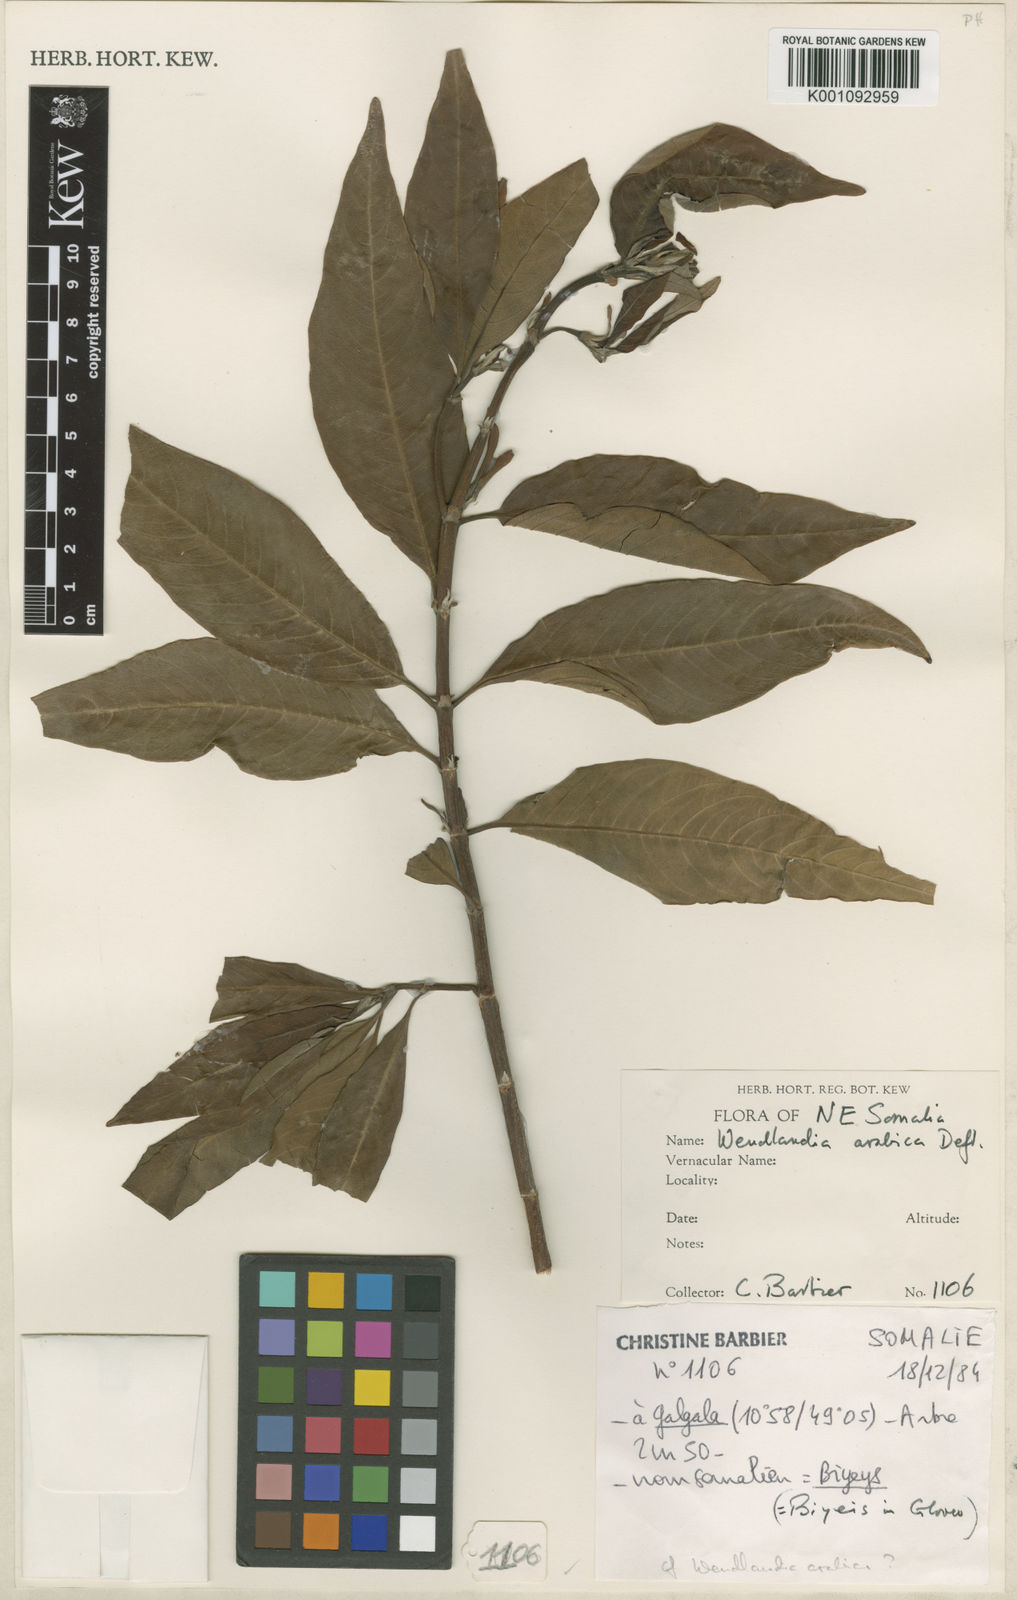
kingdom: Plantae
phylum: Tracheophyta
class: Magnoliopsida
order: Gentianales
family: Rubiaceae
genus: Wendlandia
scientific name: Wendlandia arabica
